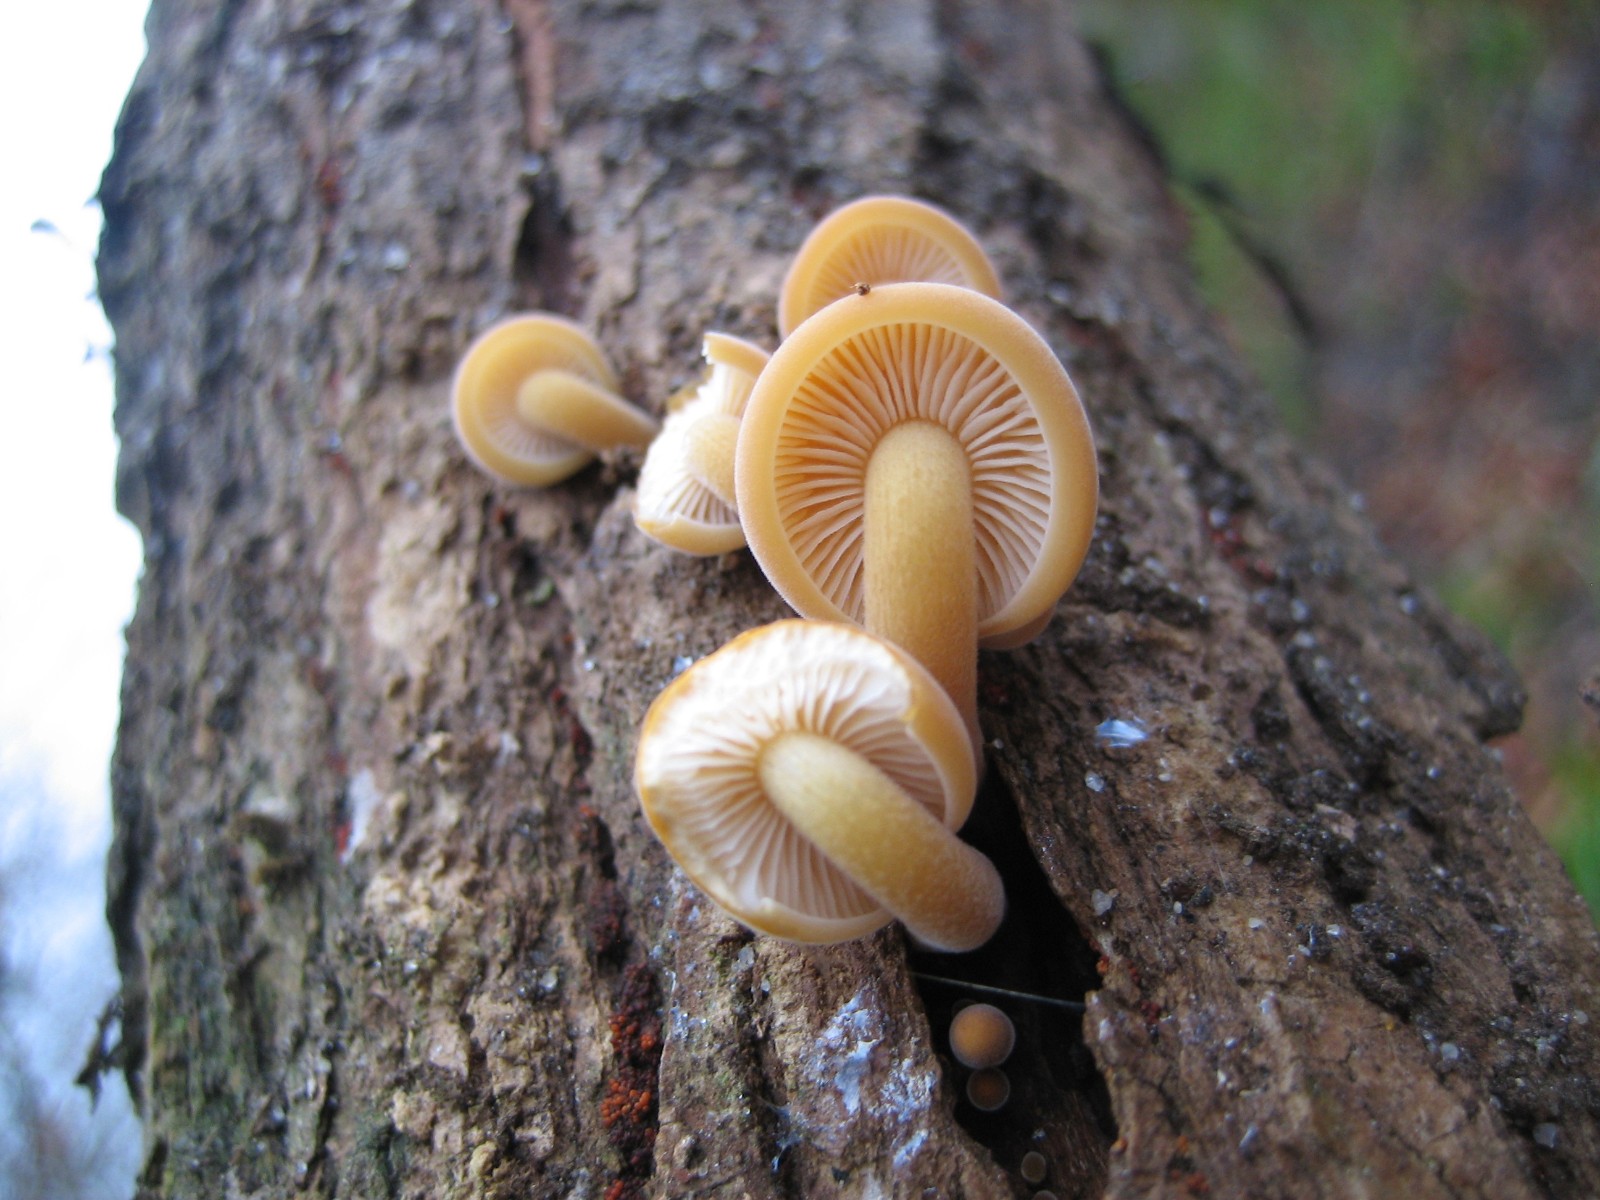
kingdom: Fungi
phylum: Basidiomycota
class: Agaricomycetes
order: Agaricales
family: Physalacriaceae
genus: Flammulina
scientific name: Flammulina velutipes
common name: gul fløjlsfod
